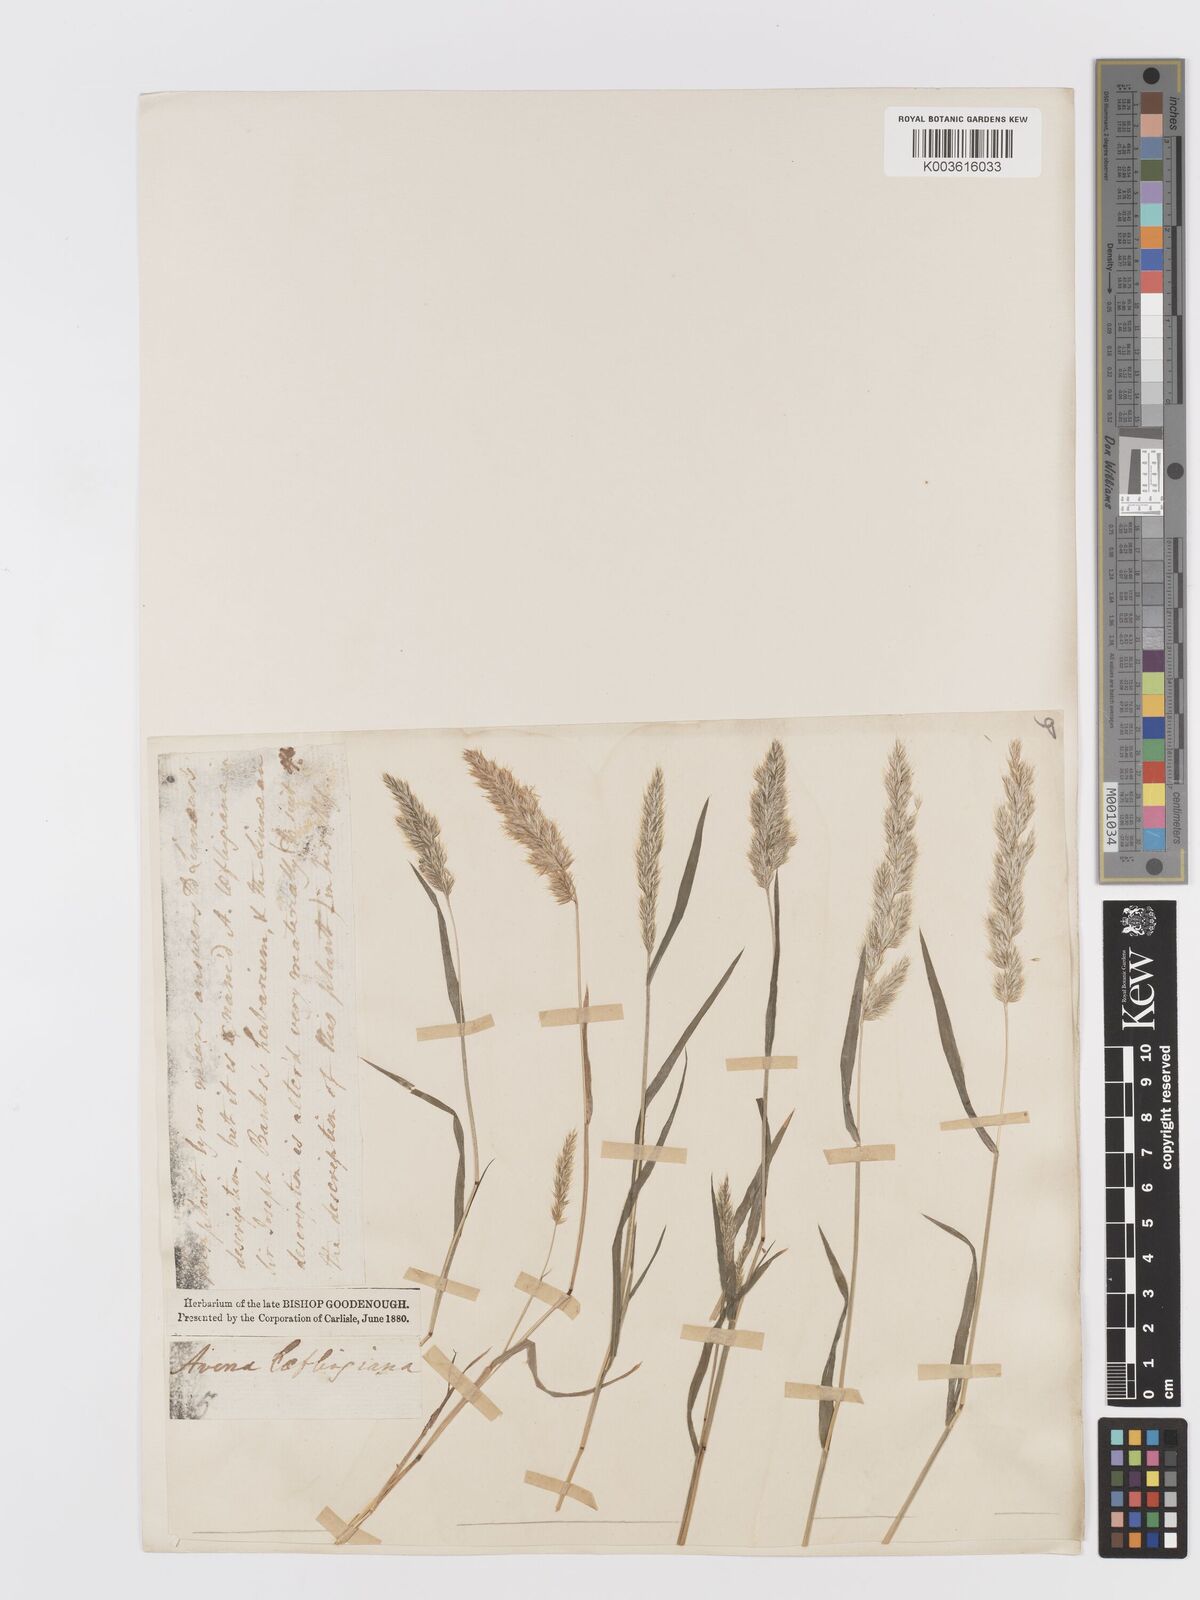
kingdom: Plantae
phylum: Tracheophyta
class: Liliopsida
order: Poales
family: Poaceae
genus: Trisetaria
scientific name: Trisetaria loeflingiana
